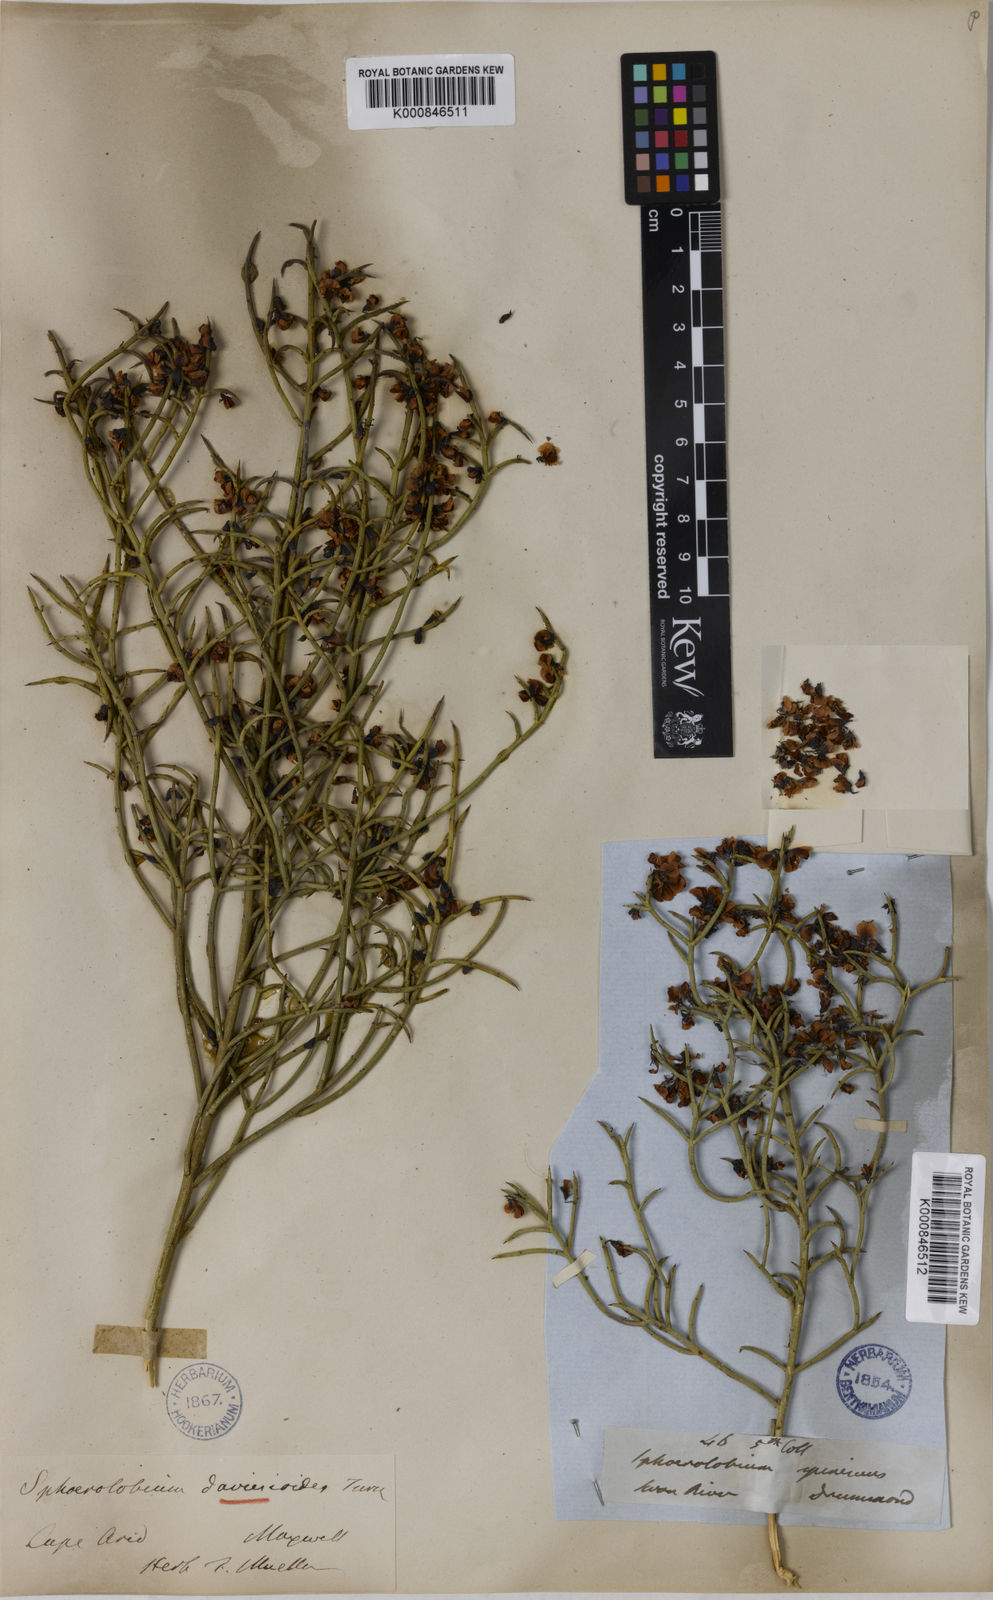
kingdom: Plantae
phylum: Tracheophyta
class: Magnoliopsida
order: Fabales
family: Fabaceae
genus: Sphaerolobium
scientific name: Sphaerolobium daviesioides
